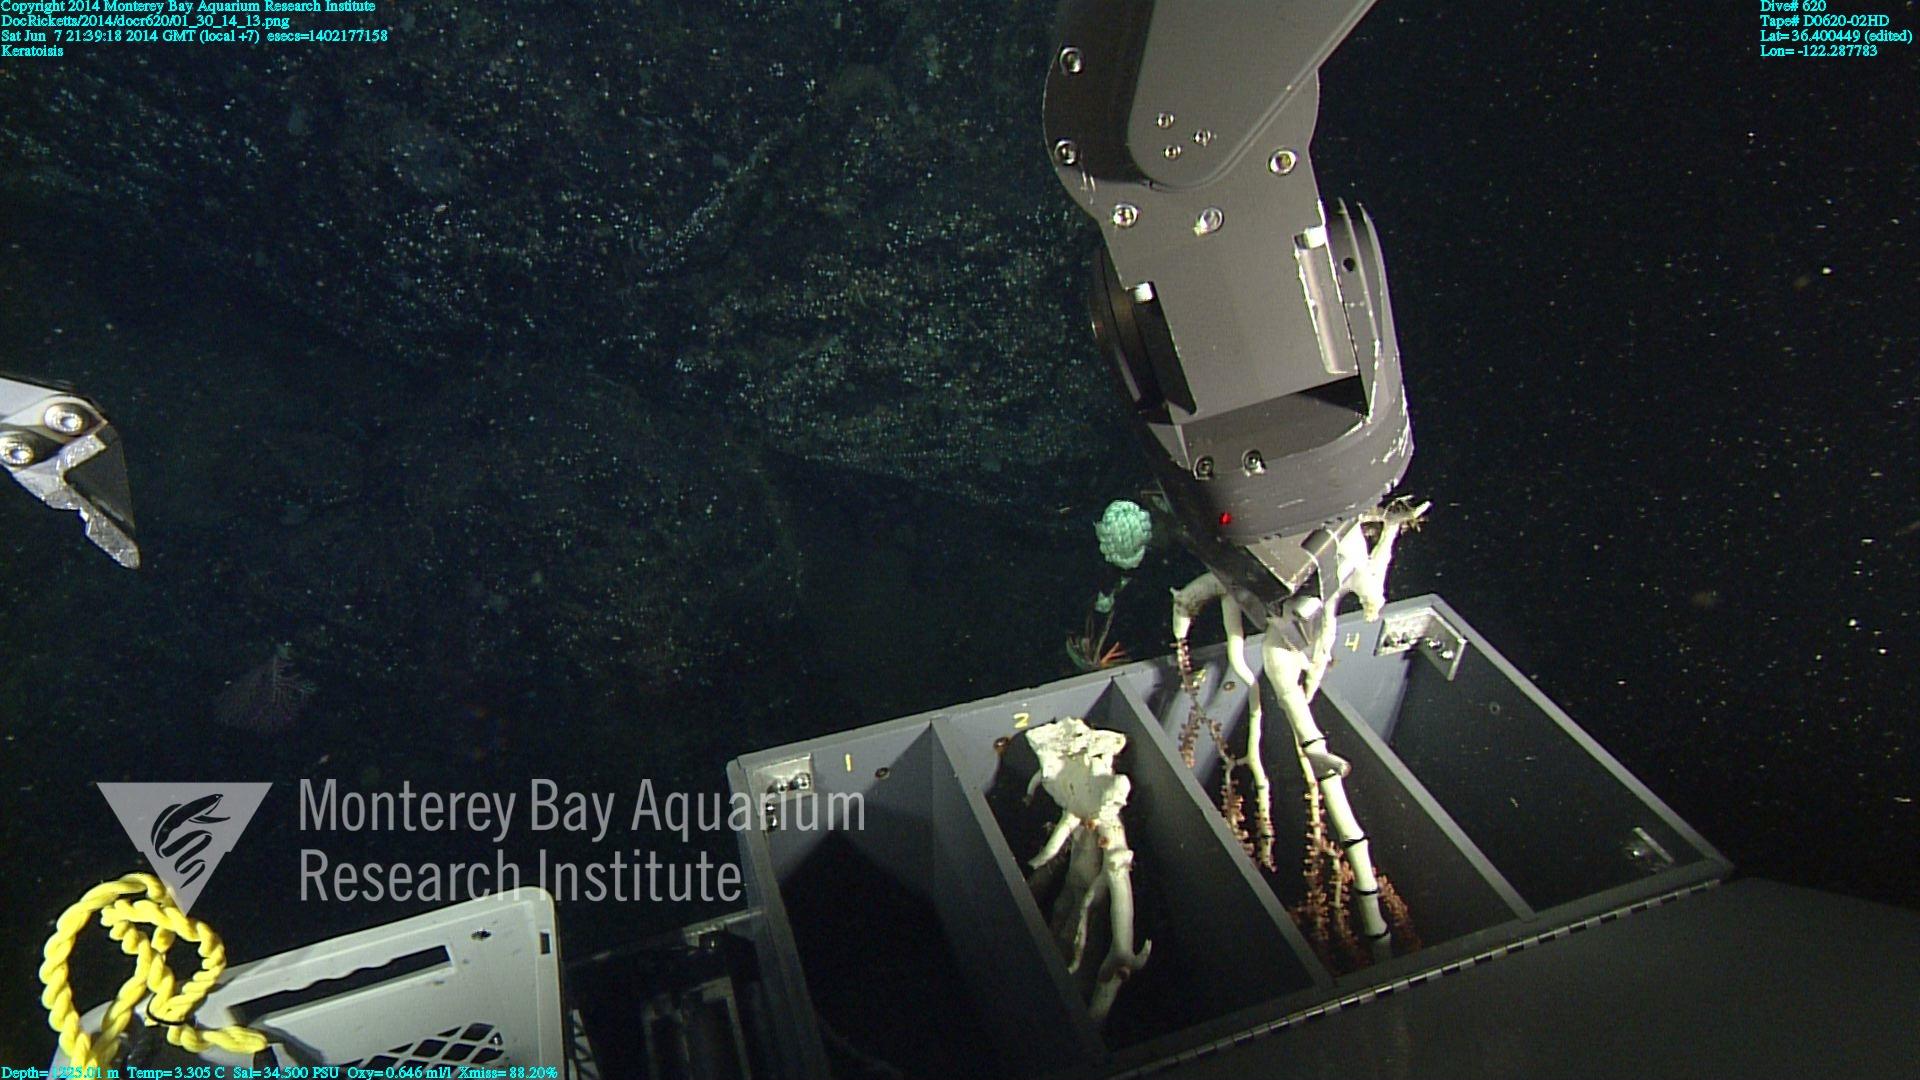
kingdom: Animalia
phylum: Cnidaria
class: Anthozoa
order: Scleralcyonacea
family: Keratoisididae
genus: Keratoisis
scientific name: Keratoisis
